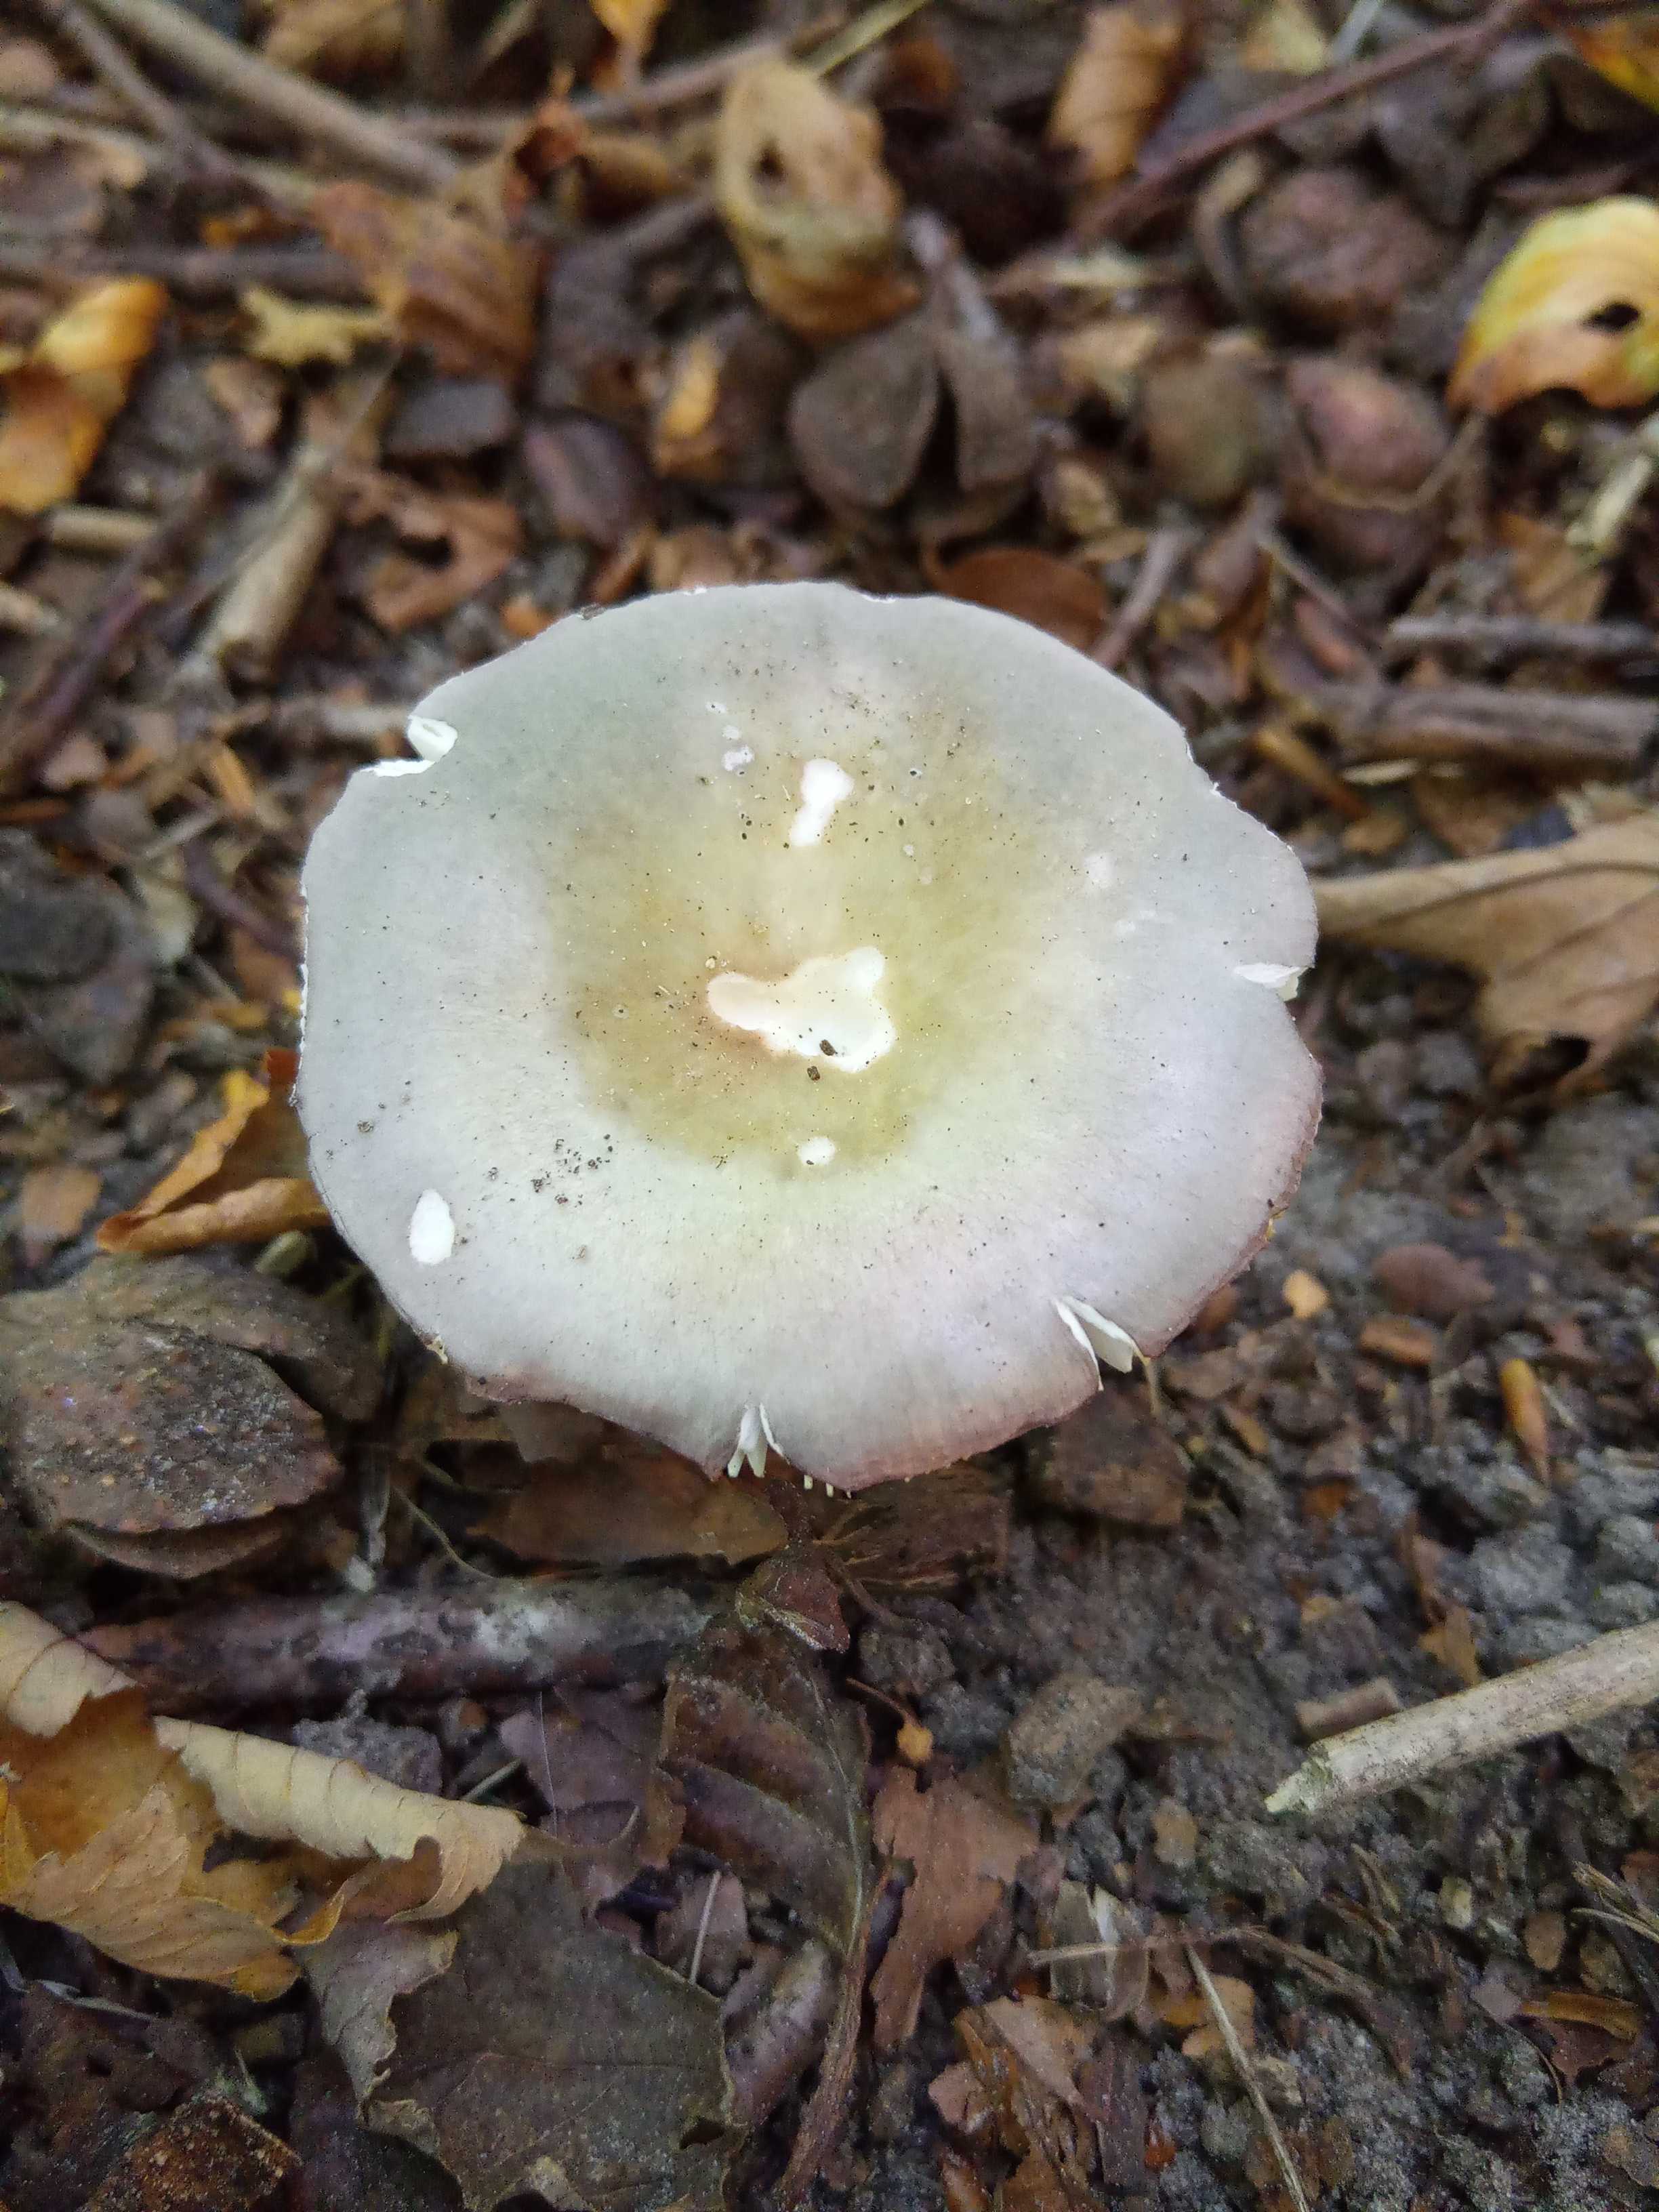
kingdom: Fungi
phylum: Basidiomycota
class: Agaricomycetes
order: Russulales
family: Russulaceae
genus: Russula
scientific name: Russula
